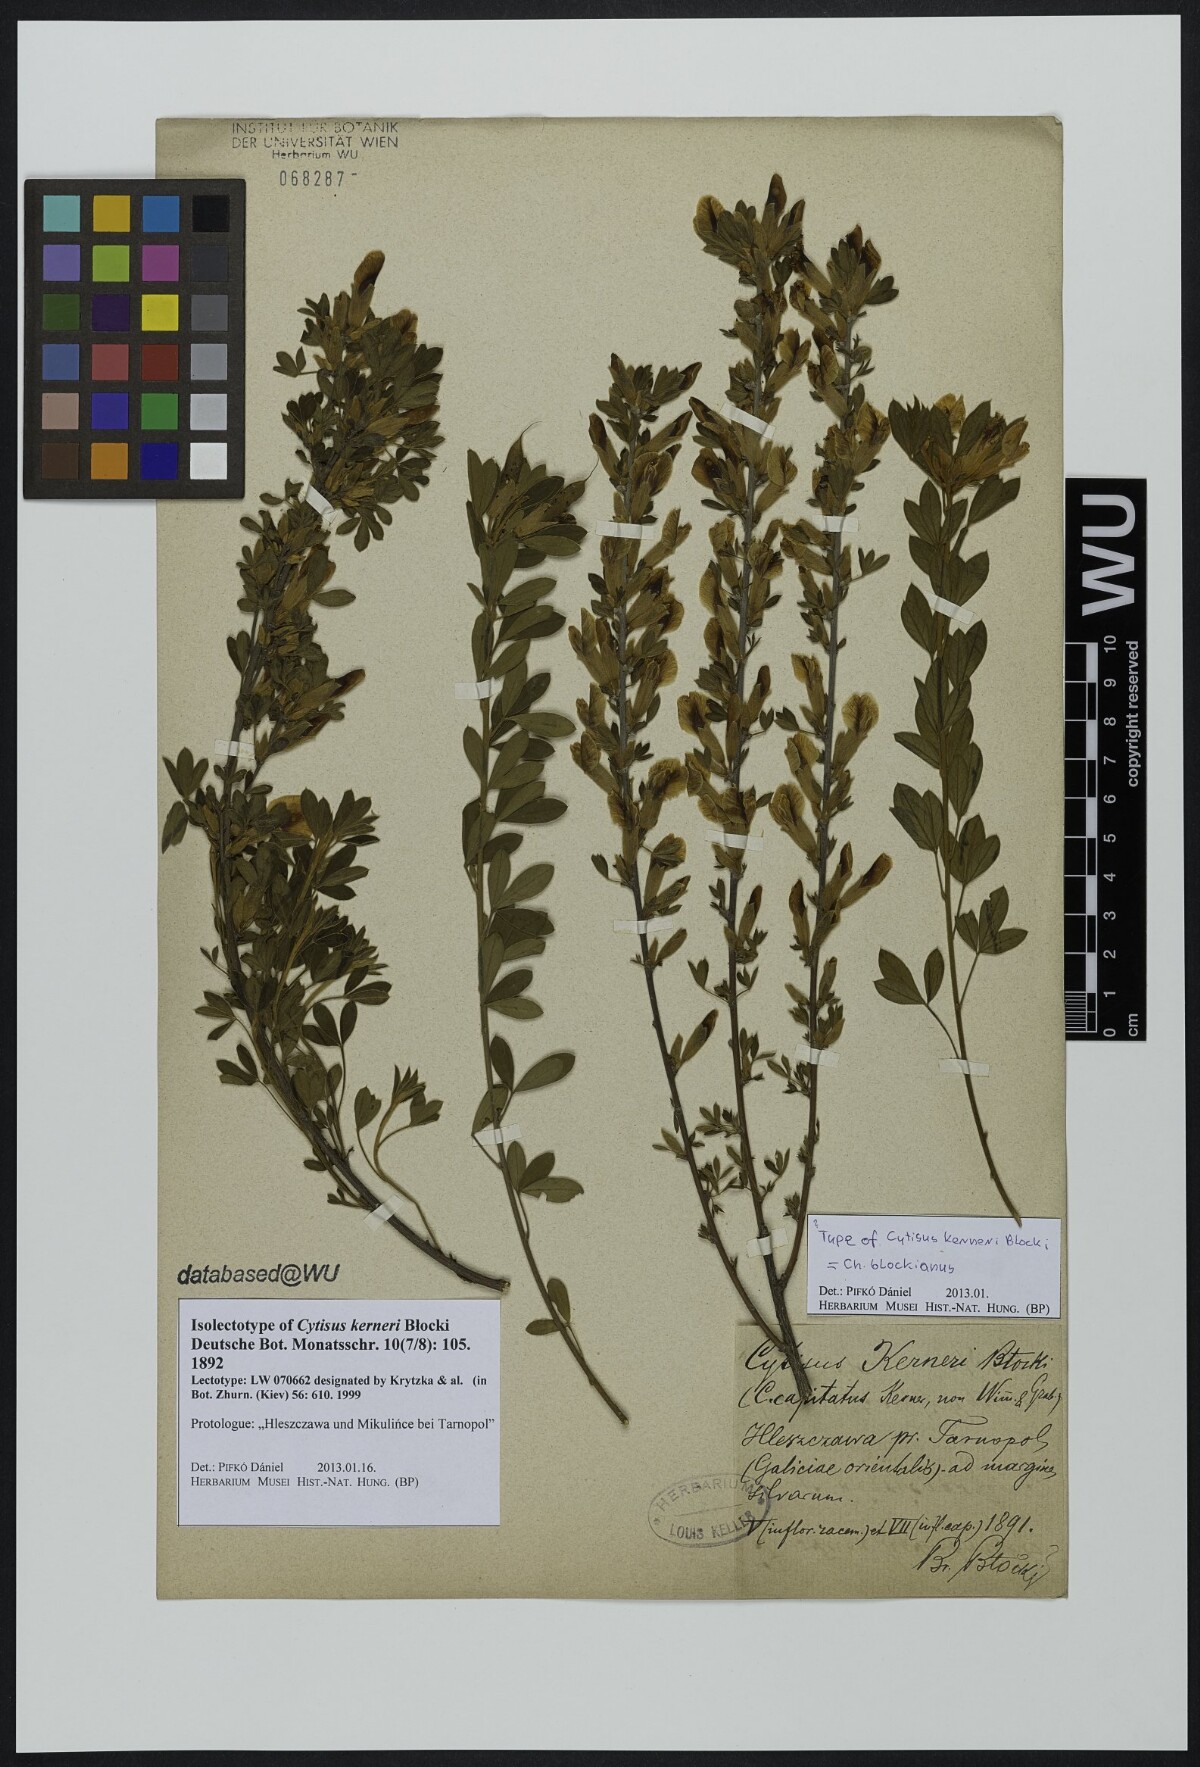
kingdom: Plantae
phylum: Tracheophyta
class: Magnoliopsida
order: Fabales
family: Fabaceae
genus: Cytisus
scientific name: Cytisus kerneri
